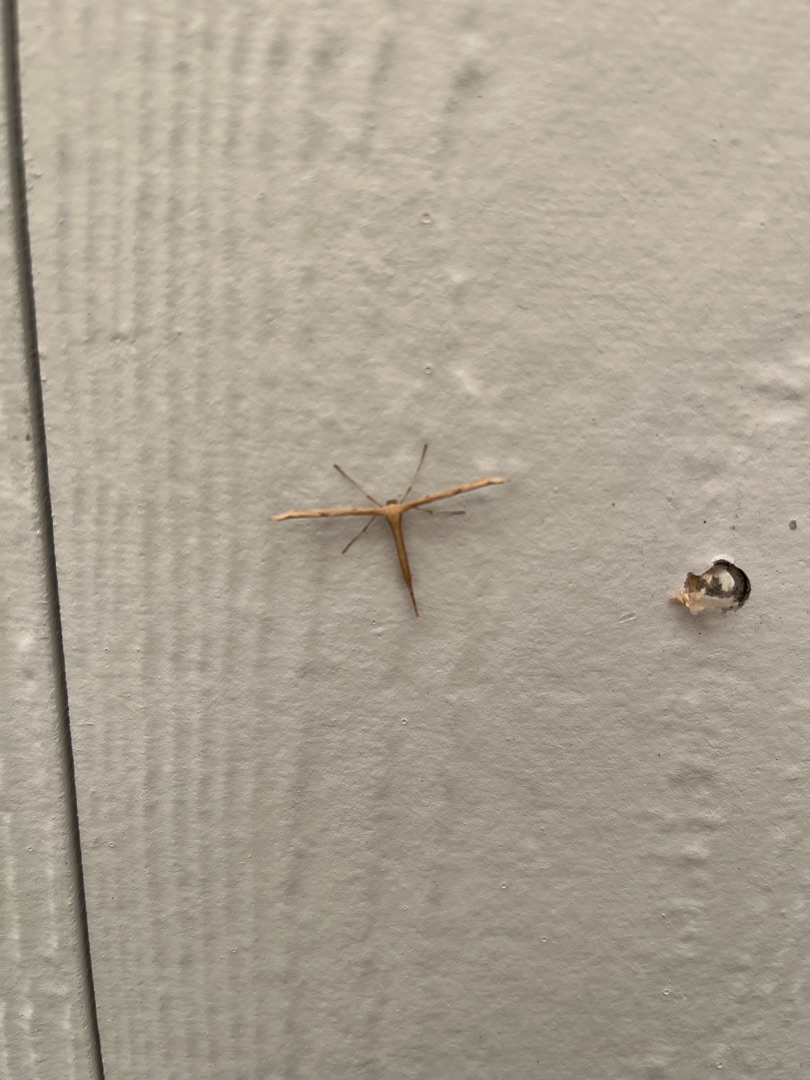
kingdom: Animalia
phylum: Arthropoda
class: Insecta
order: Lepidoptera
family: Pterophoridae
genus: Emmelina
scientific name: Emmelina monodactyla
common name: Snerlefjermøl
